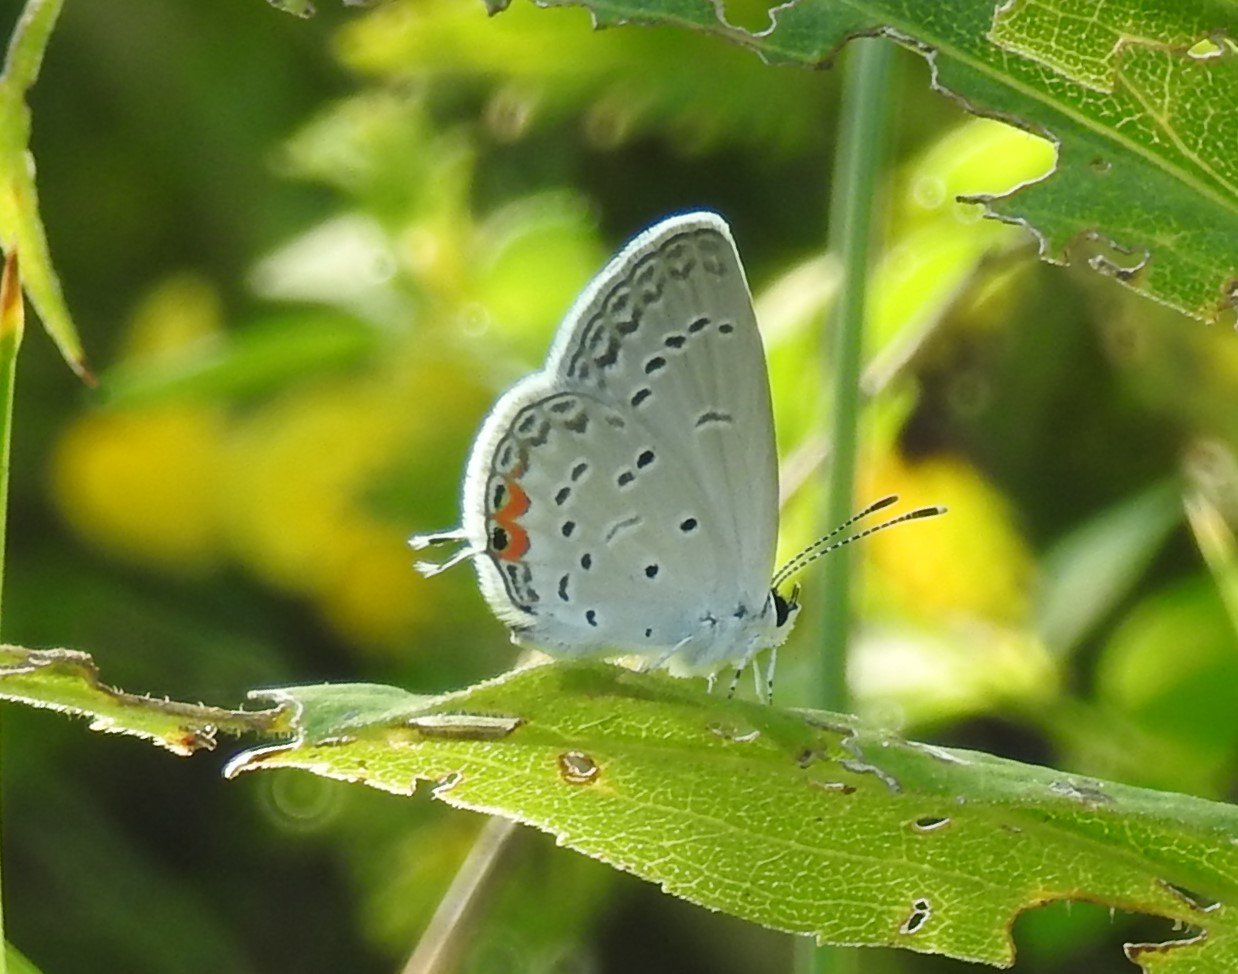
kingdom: Animalia
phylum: Arthropoda
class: Insecta
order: Lepidoptera
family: Lycaenidae
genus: Elkalyce
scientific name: Elkalyce comyntas
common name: Eastern Tailed-Blue
